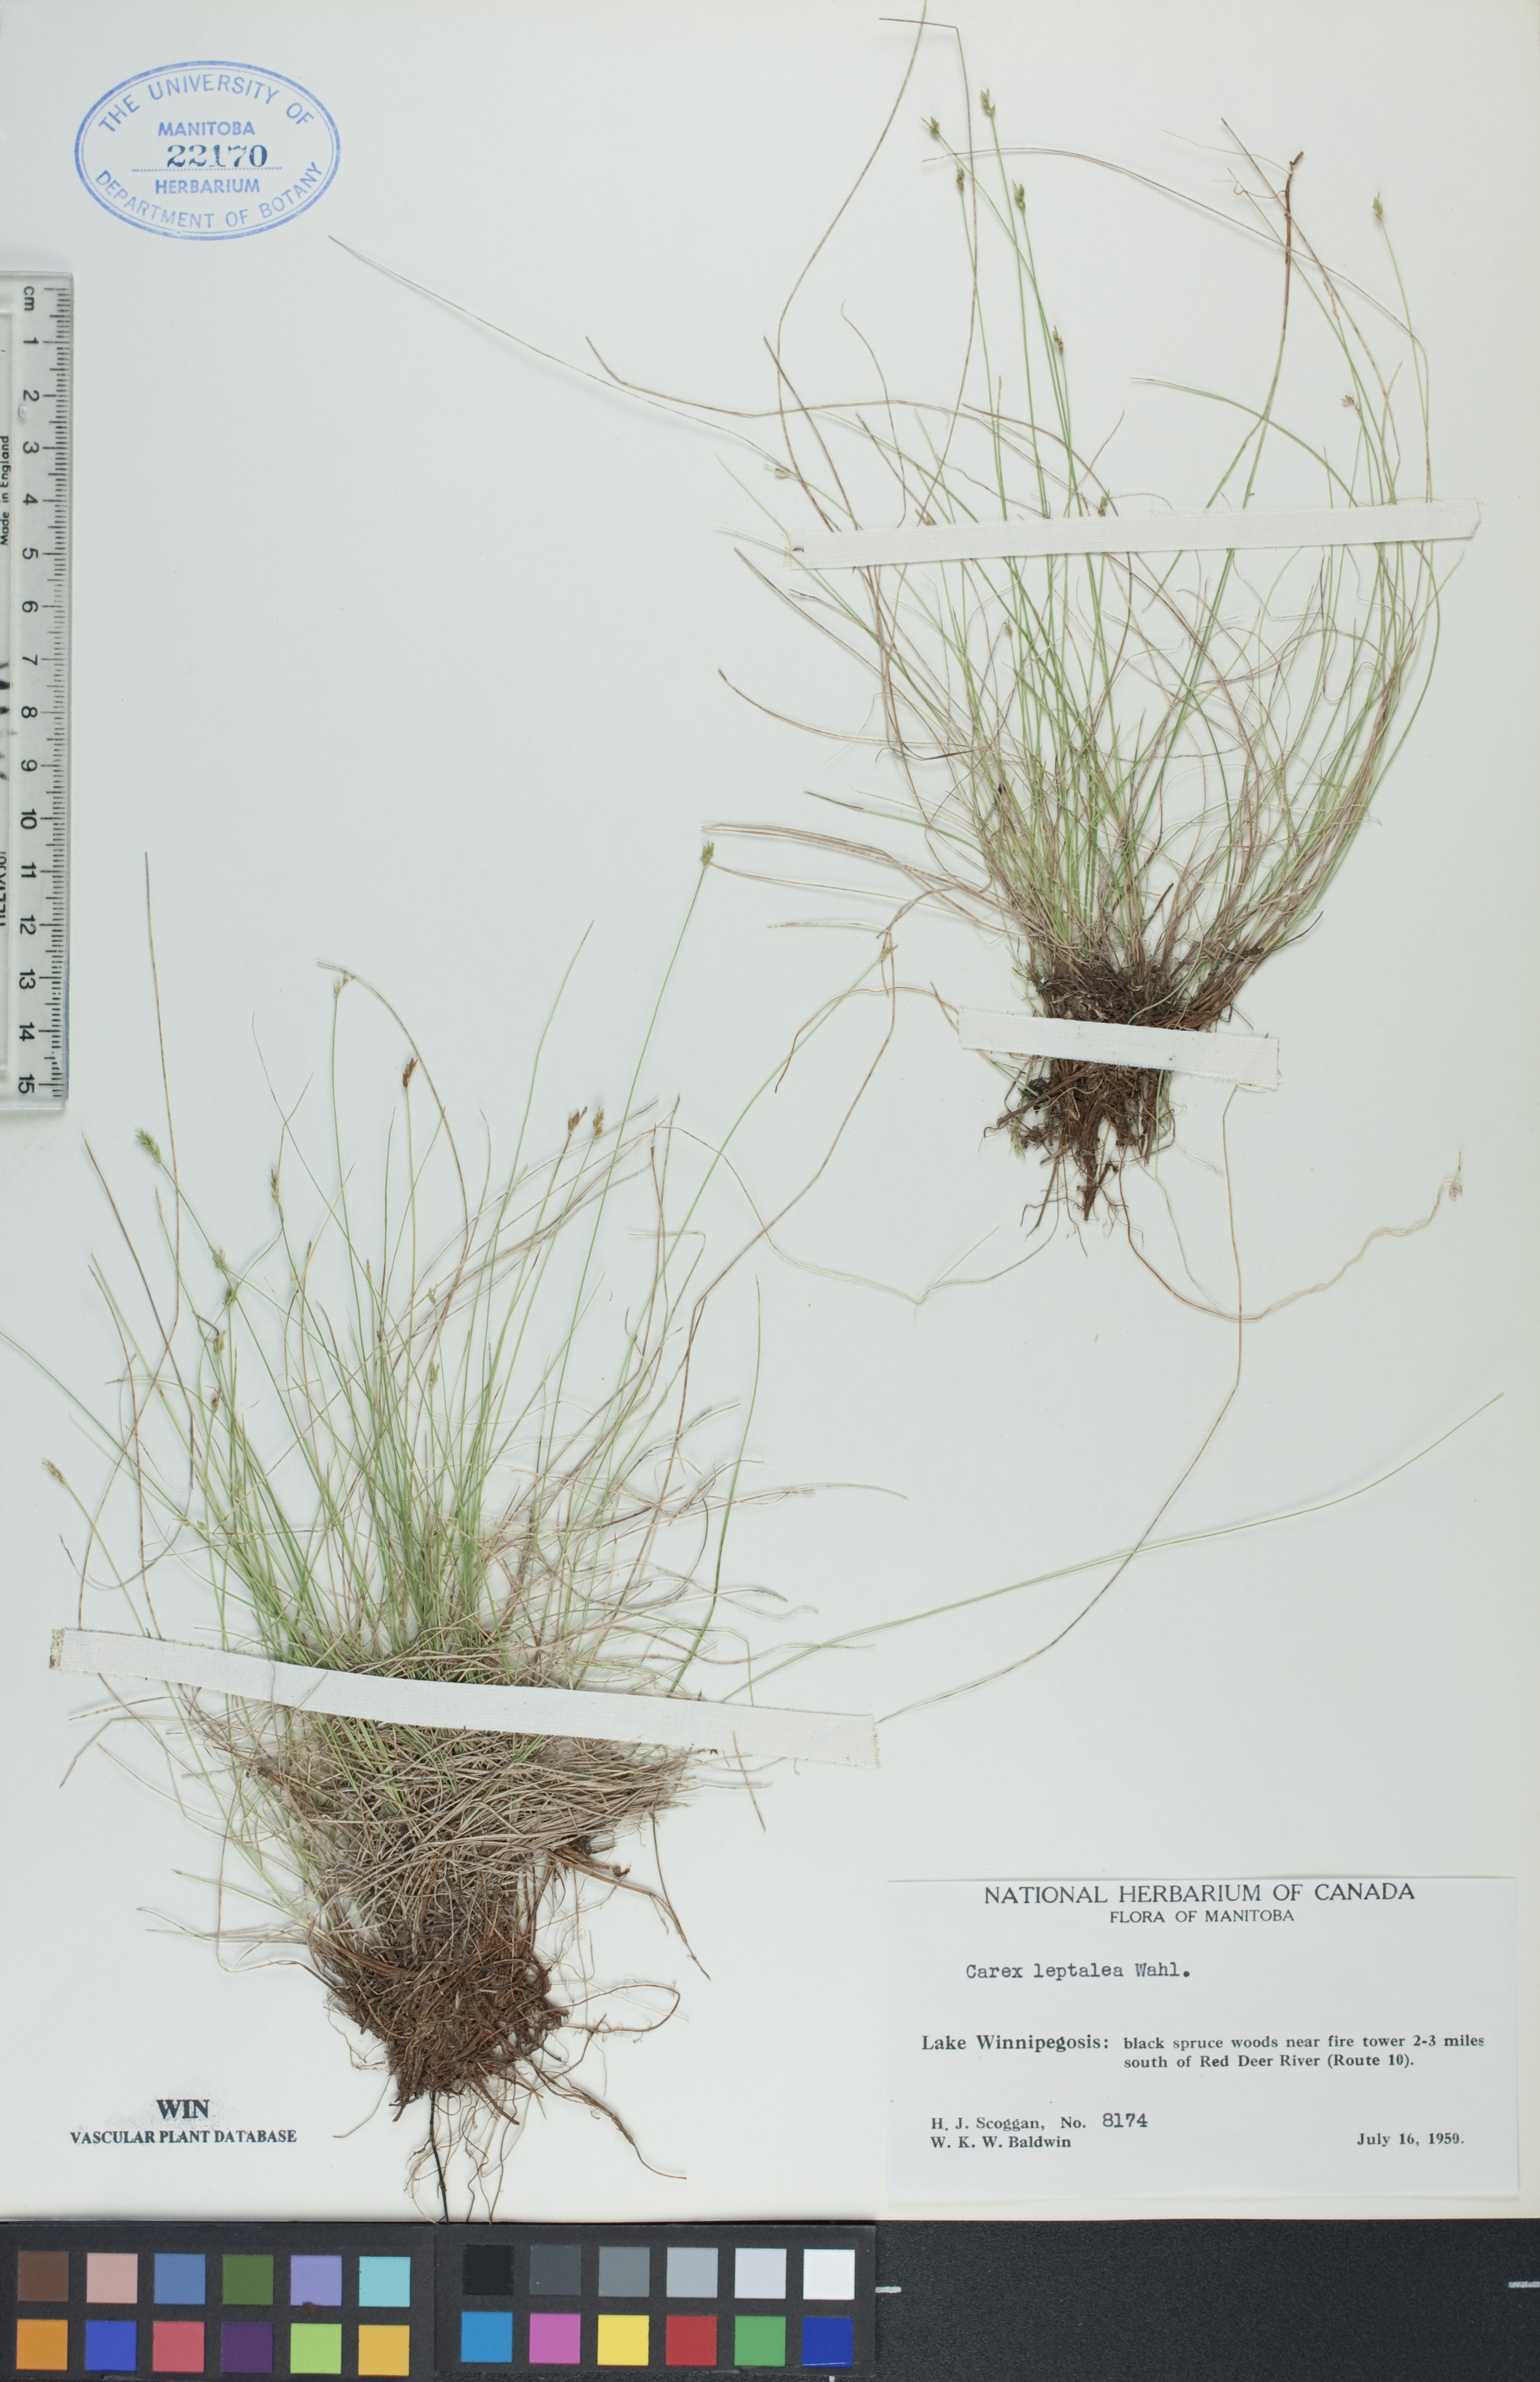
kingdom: Plantae
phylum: Tracheophyta
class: Liliopsida
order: Poales
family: Cyperaceae
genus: Carex
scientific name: Carex leptalea
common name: Bristly-stalked sedge
